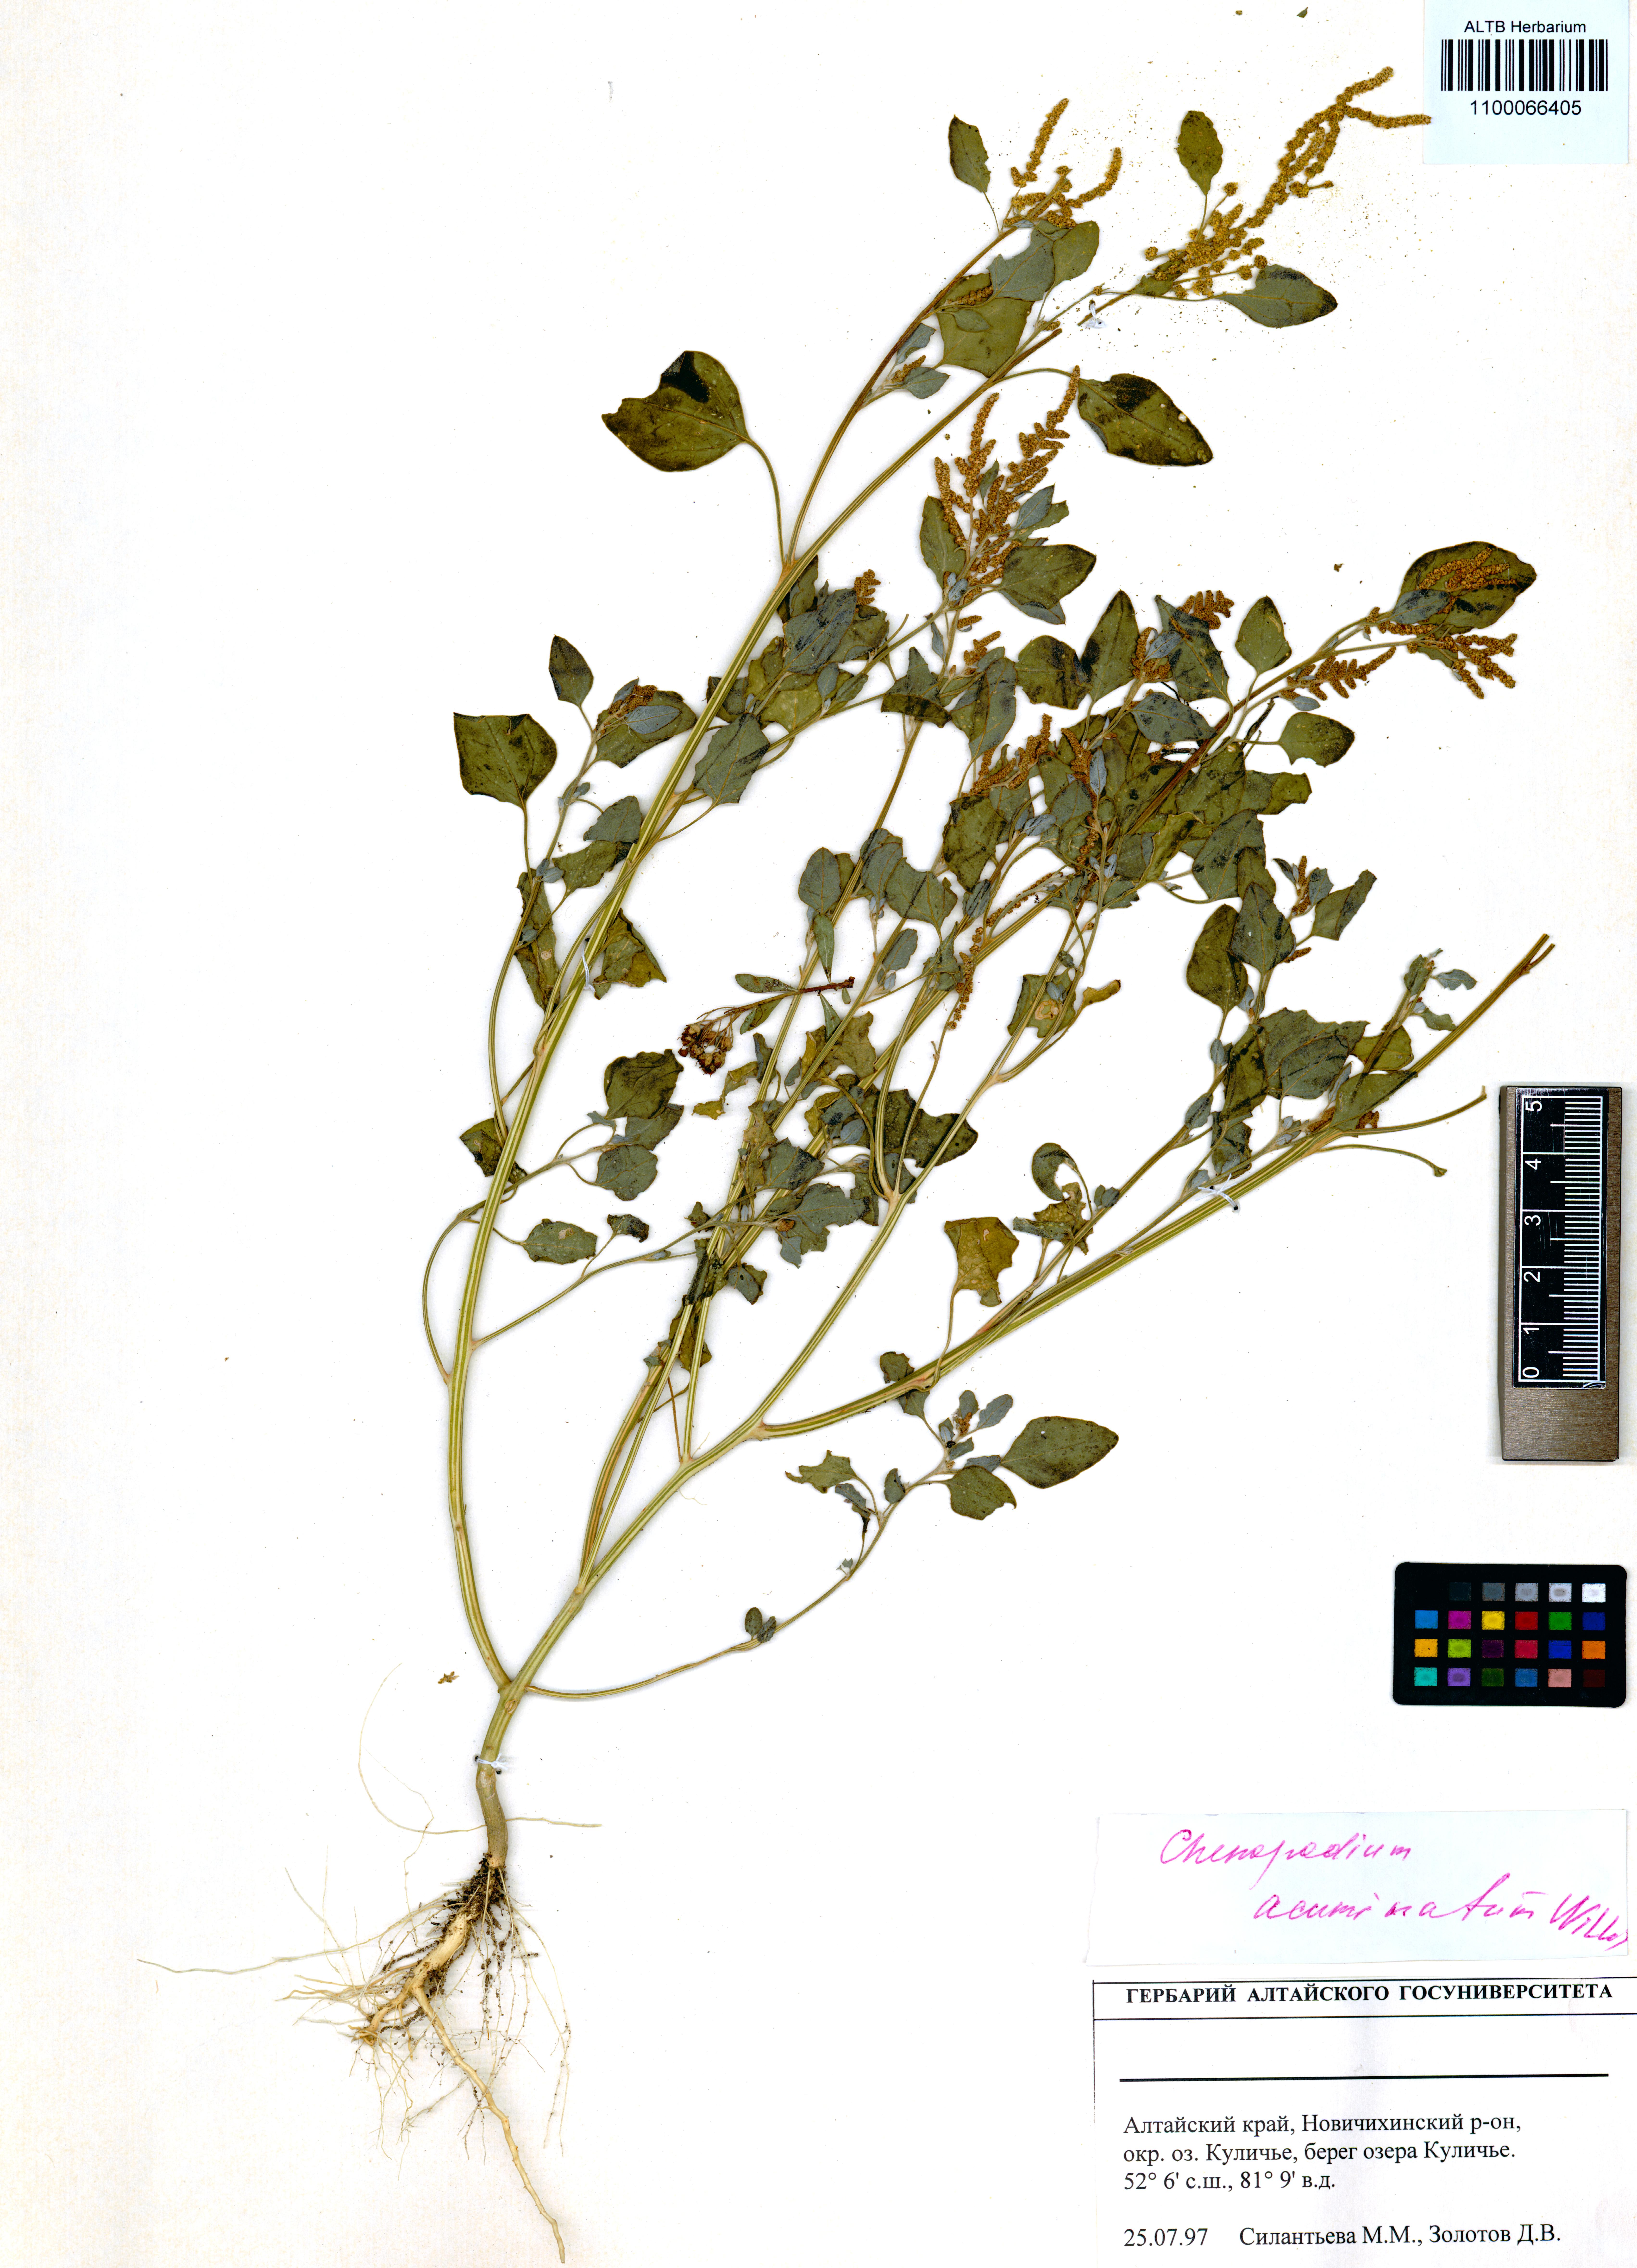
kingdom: Plantae
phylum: Tracheophyta
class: Magnoliopsida
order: Caryophyllales
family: Amaranthaceae
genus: Chenopodium
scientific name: Chenopodium acuminatum
